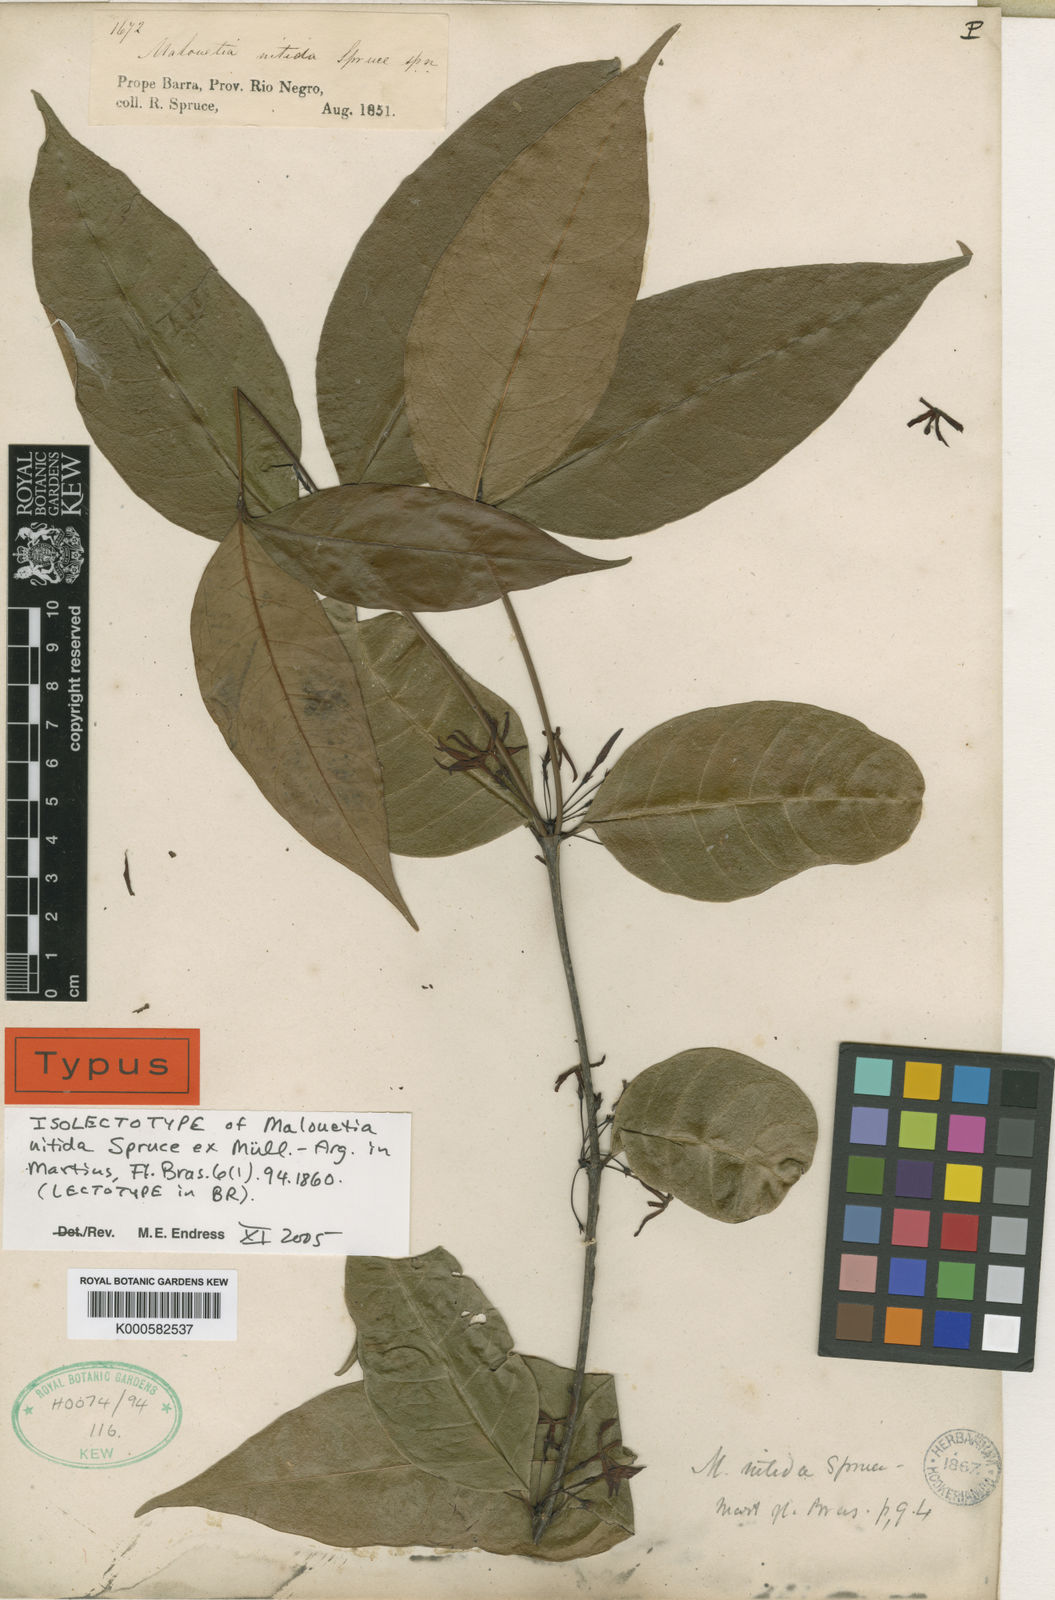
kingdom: Plantae
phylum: Tracheophyta
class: Magnoliopsida
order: Gentianales
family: Apocynaceae
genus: Malouetia
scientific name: Malouetia
